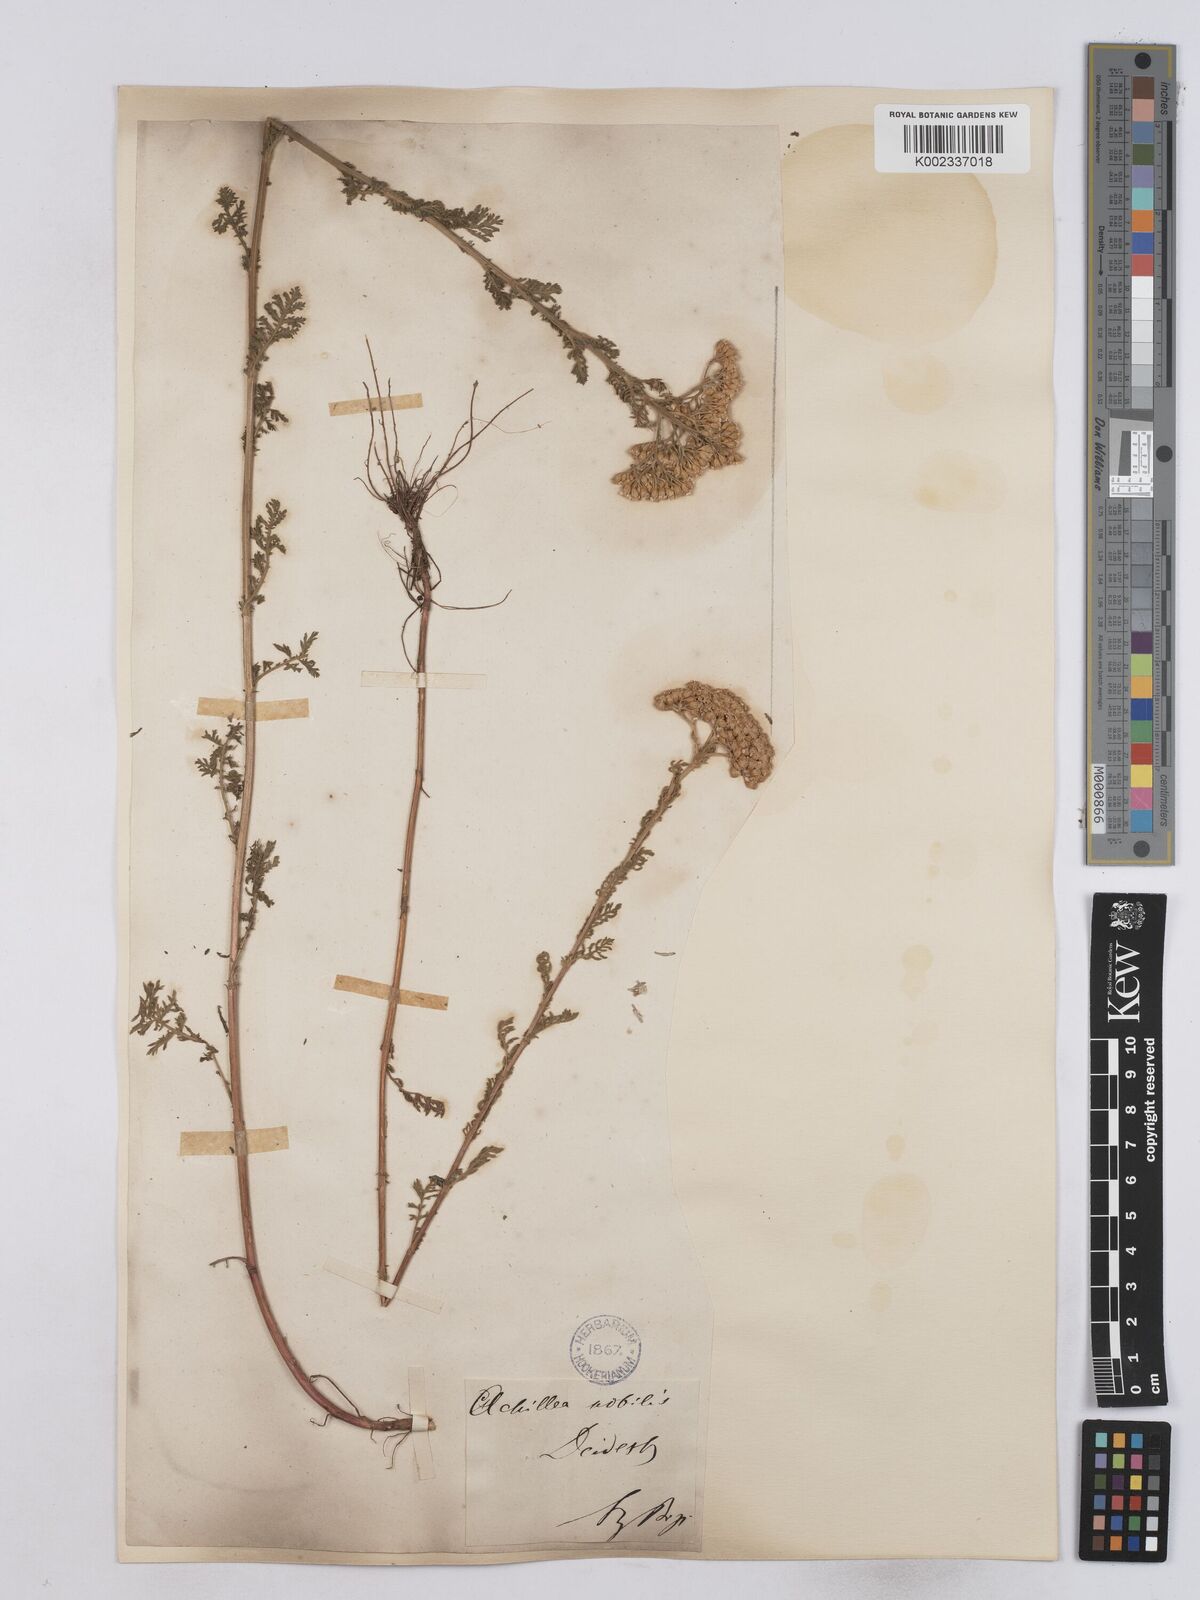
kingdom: Plantae
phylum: Tracheophyta
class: Magnoliopsida
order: Asterales
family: Asteraceae
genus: Achillea
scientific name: Achillea nobilis
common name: Noble yarrow
